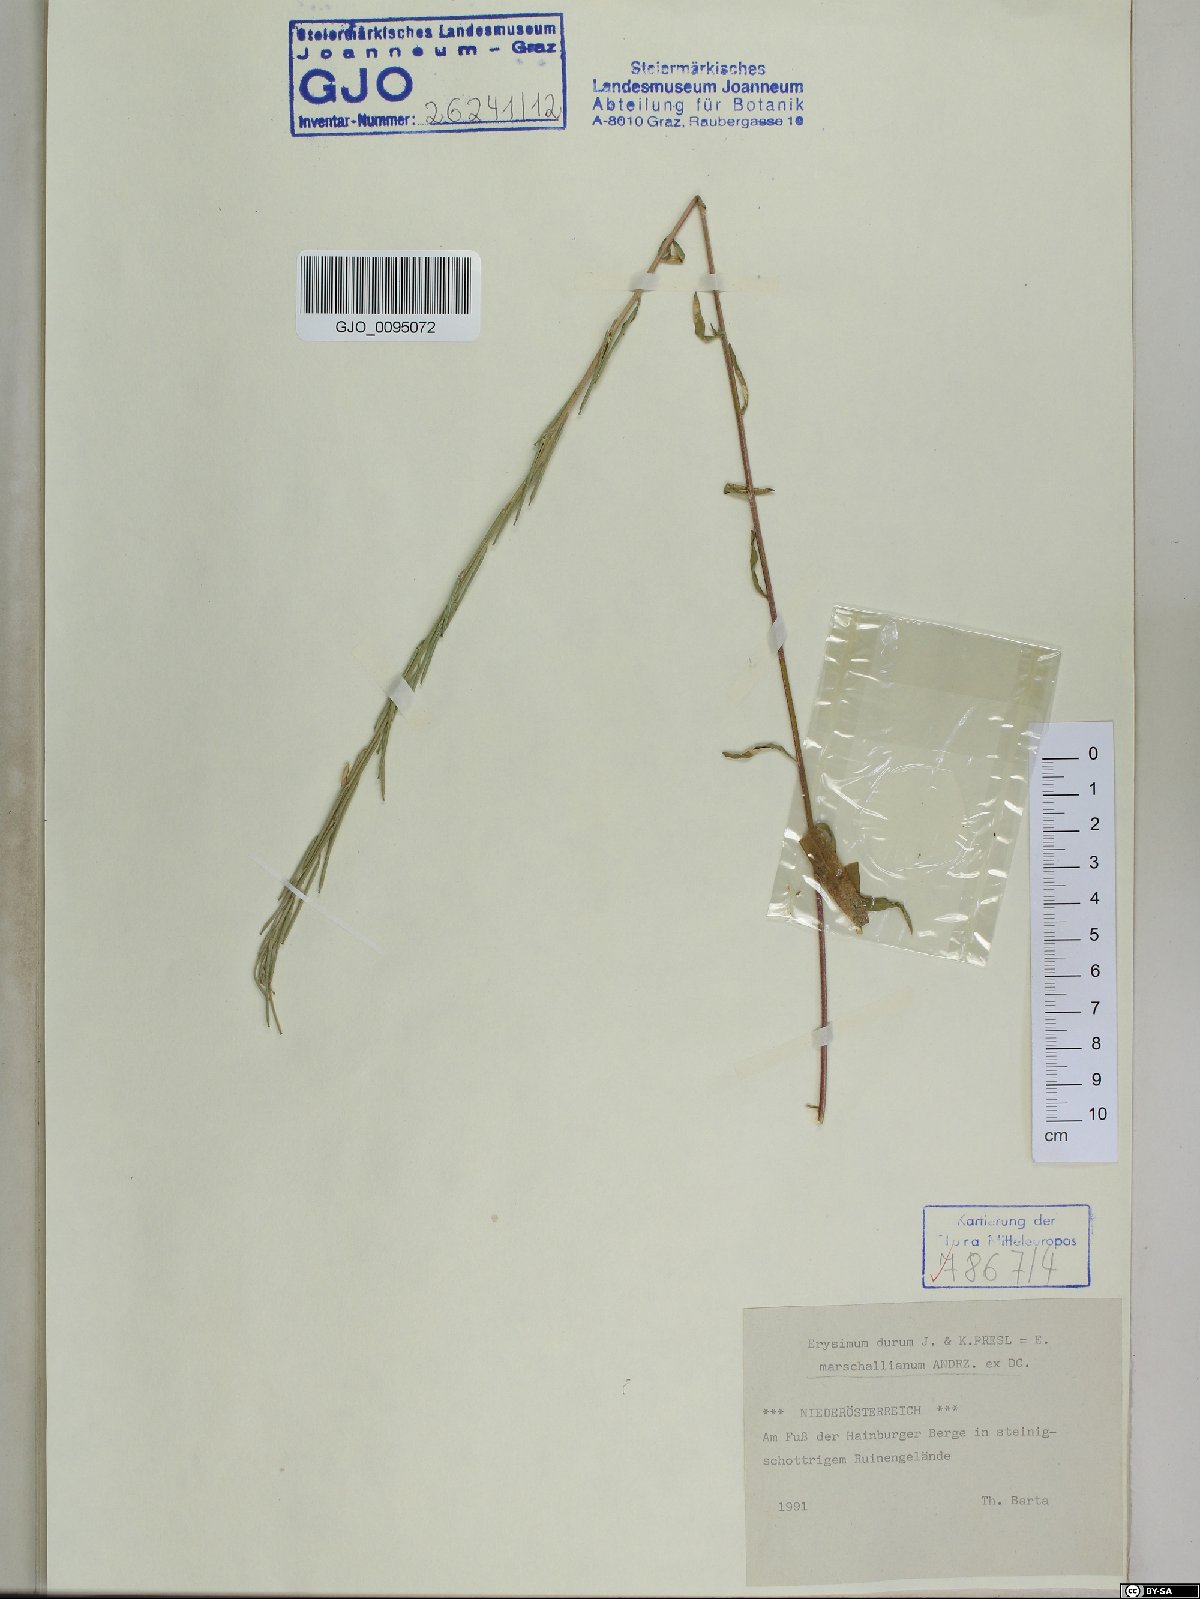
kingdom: Plantae
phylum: Tracheophyta
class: Magnoliopsida
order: Brassicales
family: Brassicaceae
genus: Erysimum
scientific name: Erysimum marschallianum
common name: Hard wallflower
